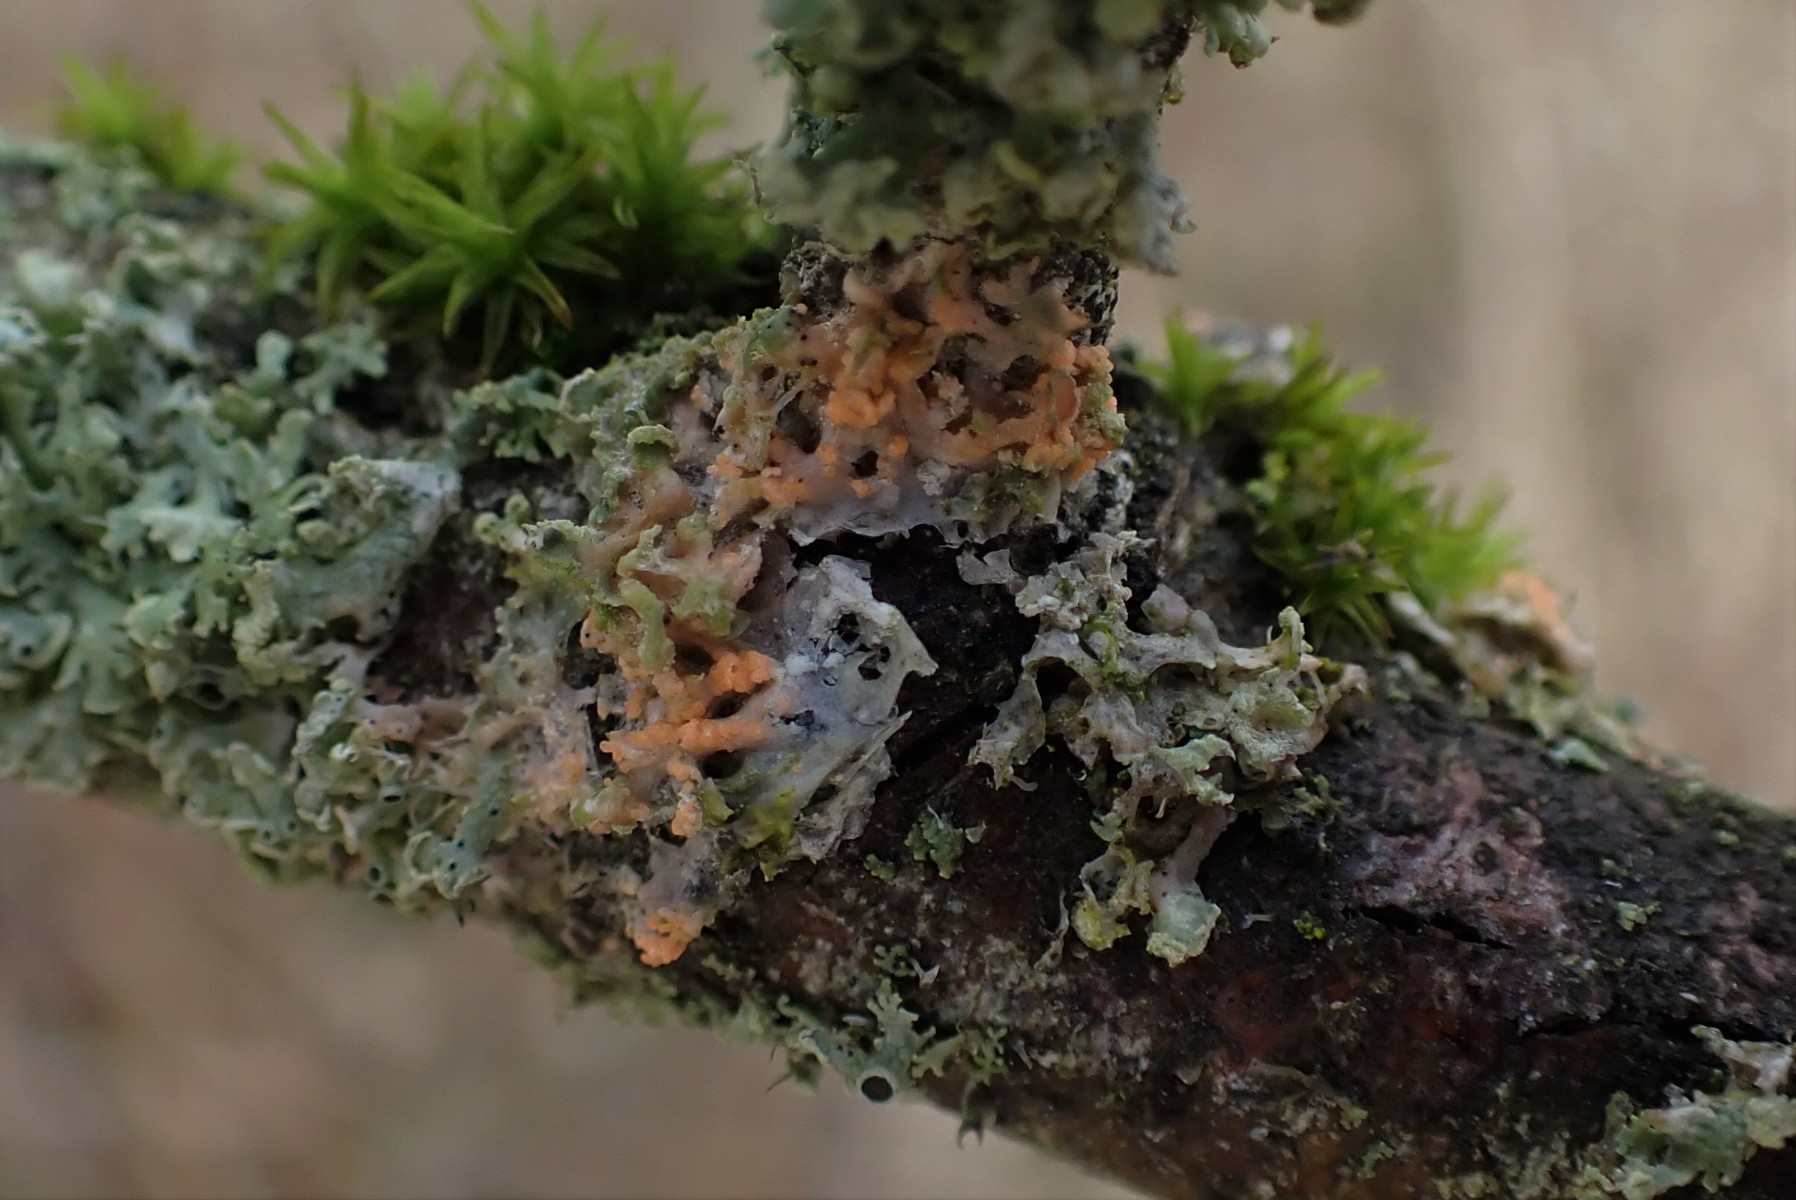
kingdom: Fungi
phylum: Basidiomycota
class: Agaricomycetes
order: Corticiales
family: Corticiaceae
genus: Erythricium
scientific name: Erythricium aurantiacum
